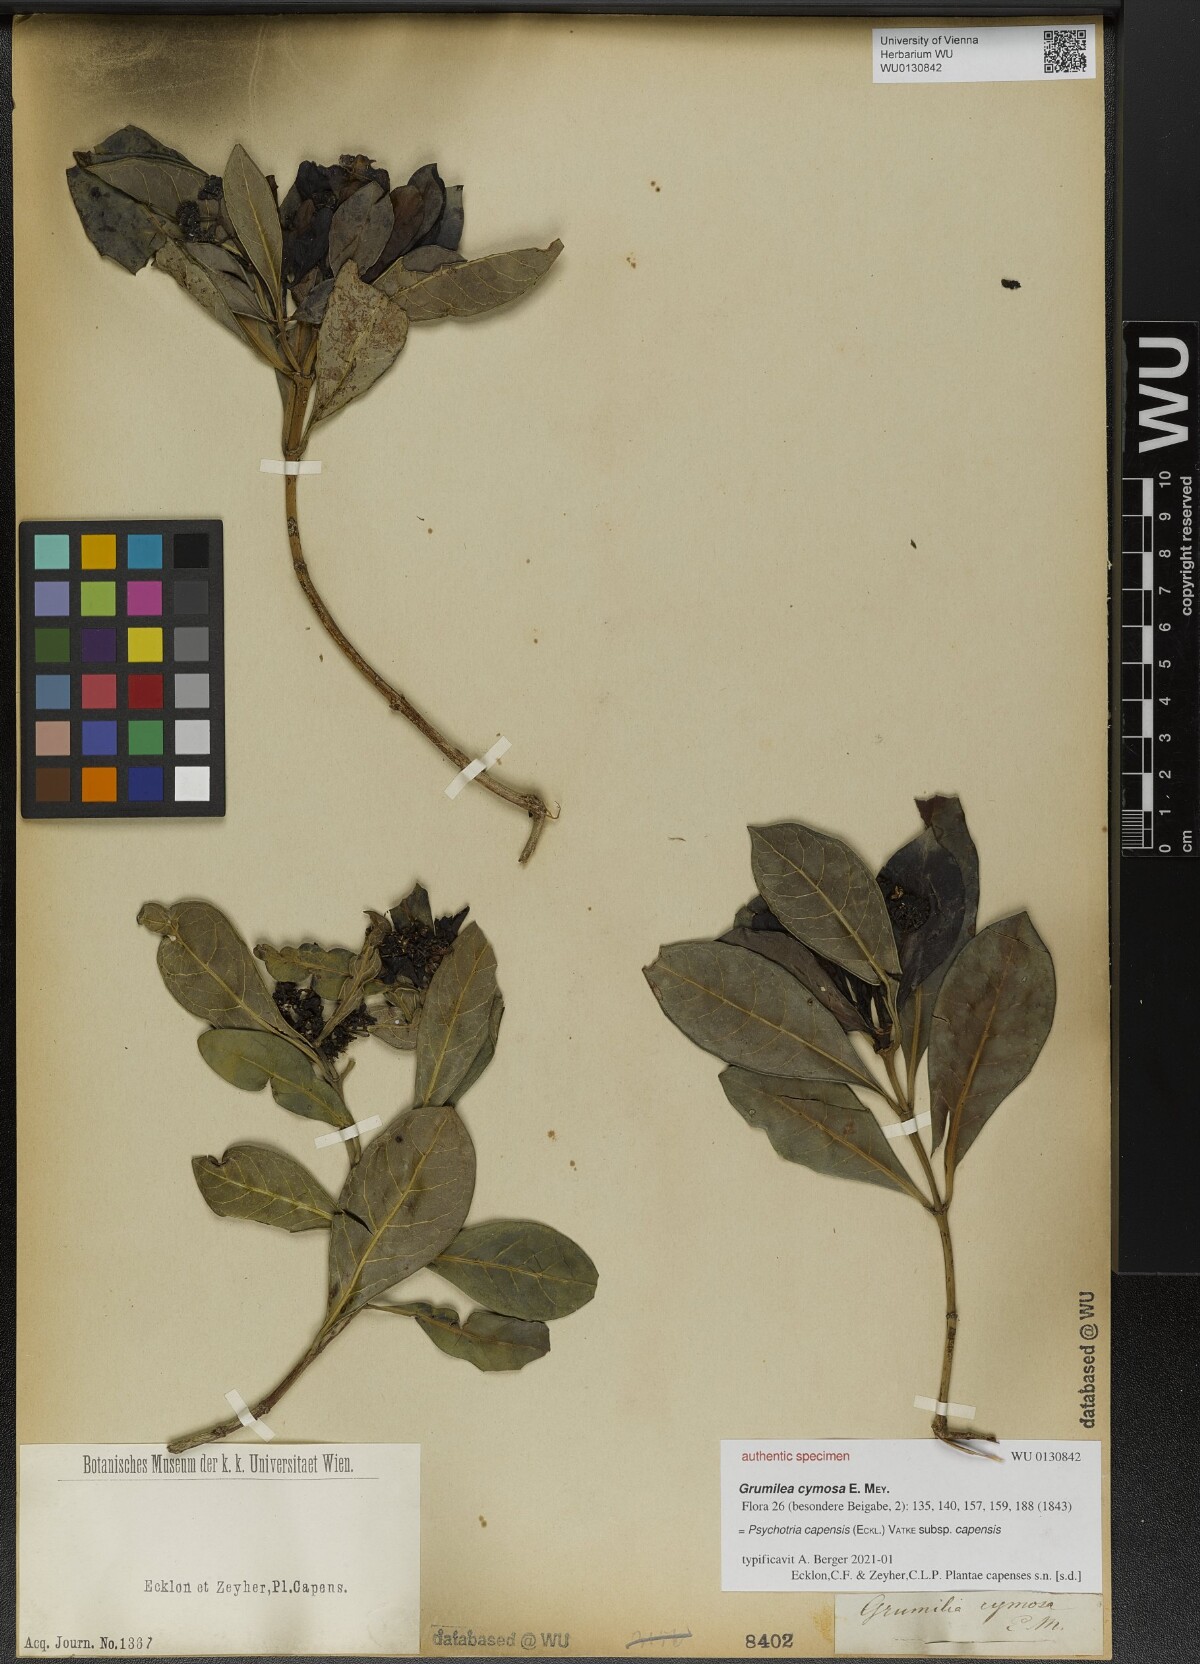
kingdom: Plantae
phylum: Tracheophyta
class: Magnoliopsida
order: Gentianales
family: Rubiaceae
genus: Psychotria
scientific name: Psychotria capensis
